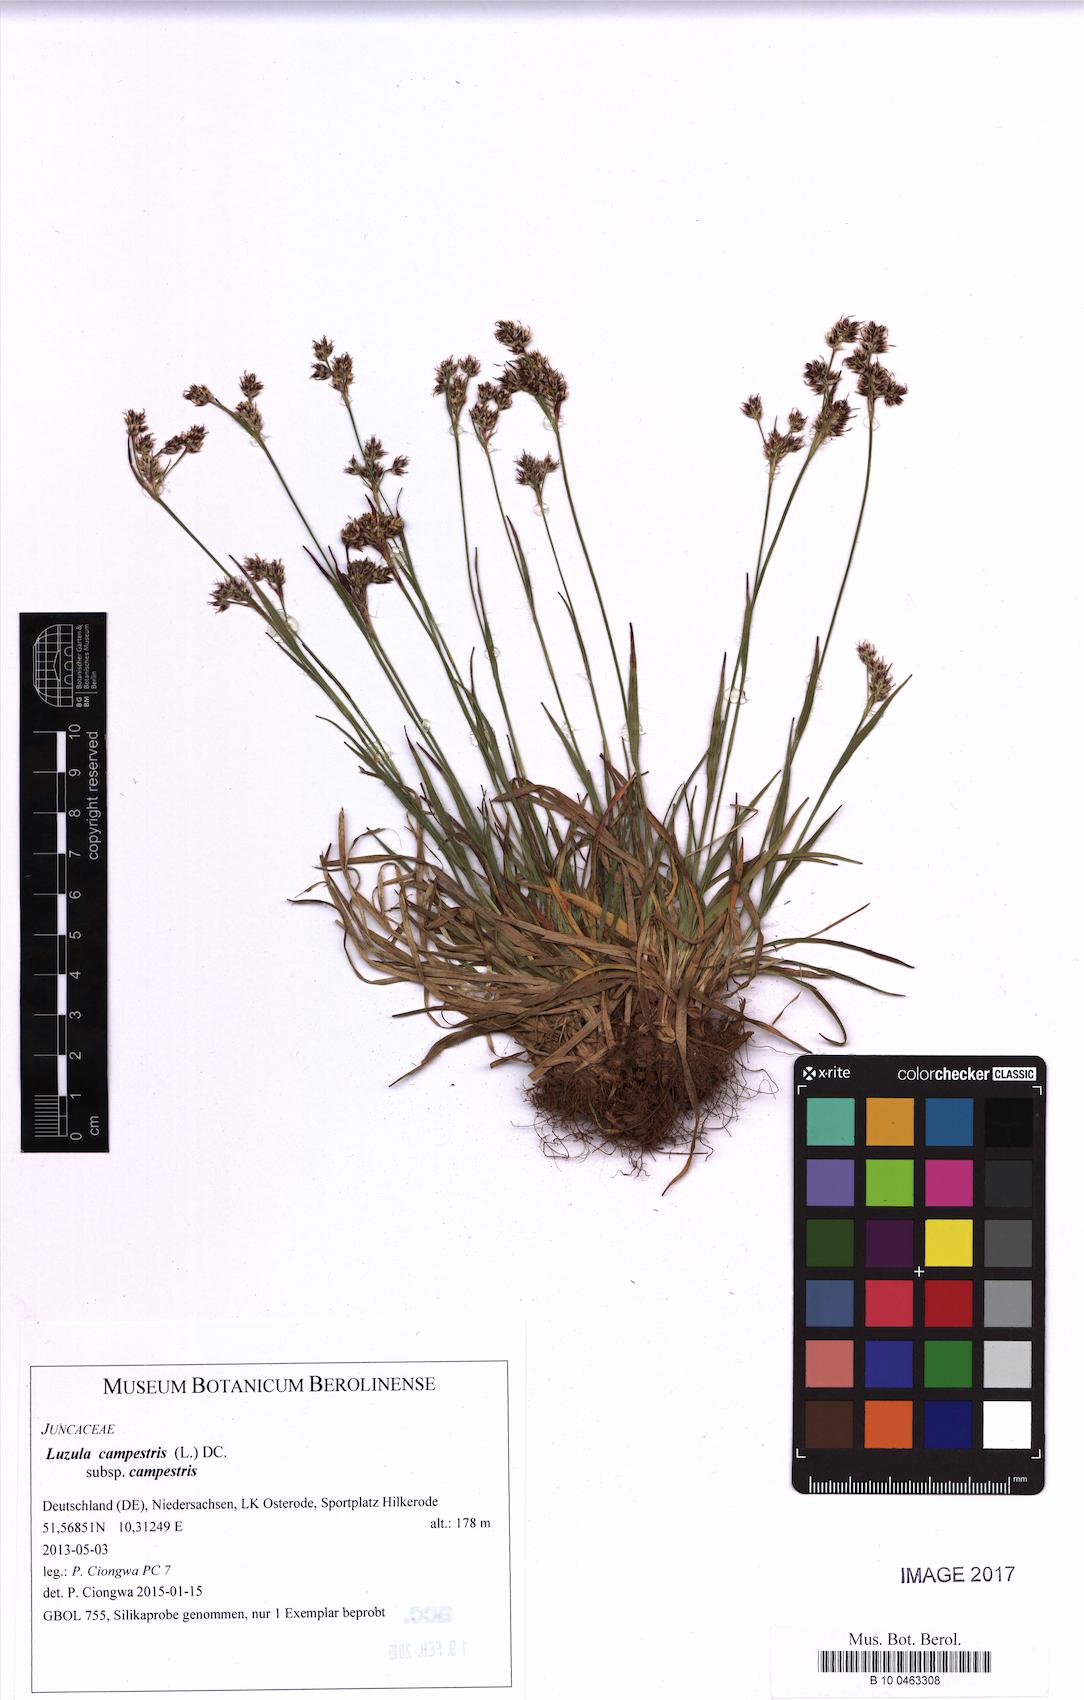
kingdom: Plantae
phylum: Tracheophyta
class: Liliopsida
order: Poales
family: Juncaceae
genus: Luzula
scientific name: Luzula campestris
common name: Field wood-rush
